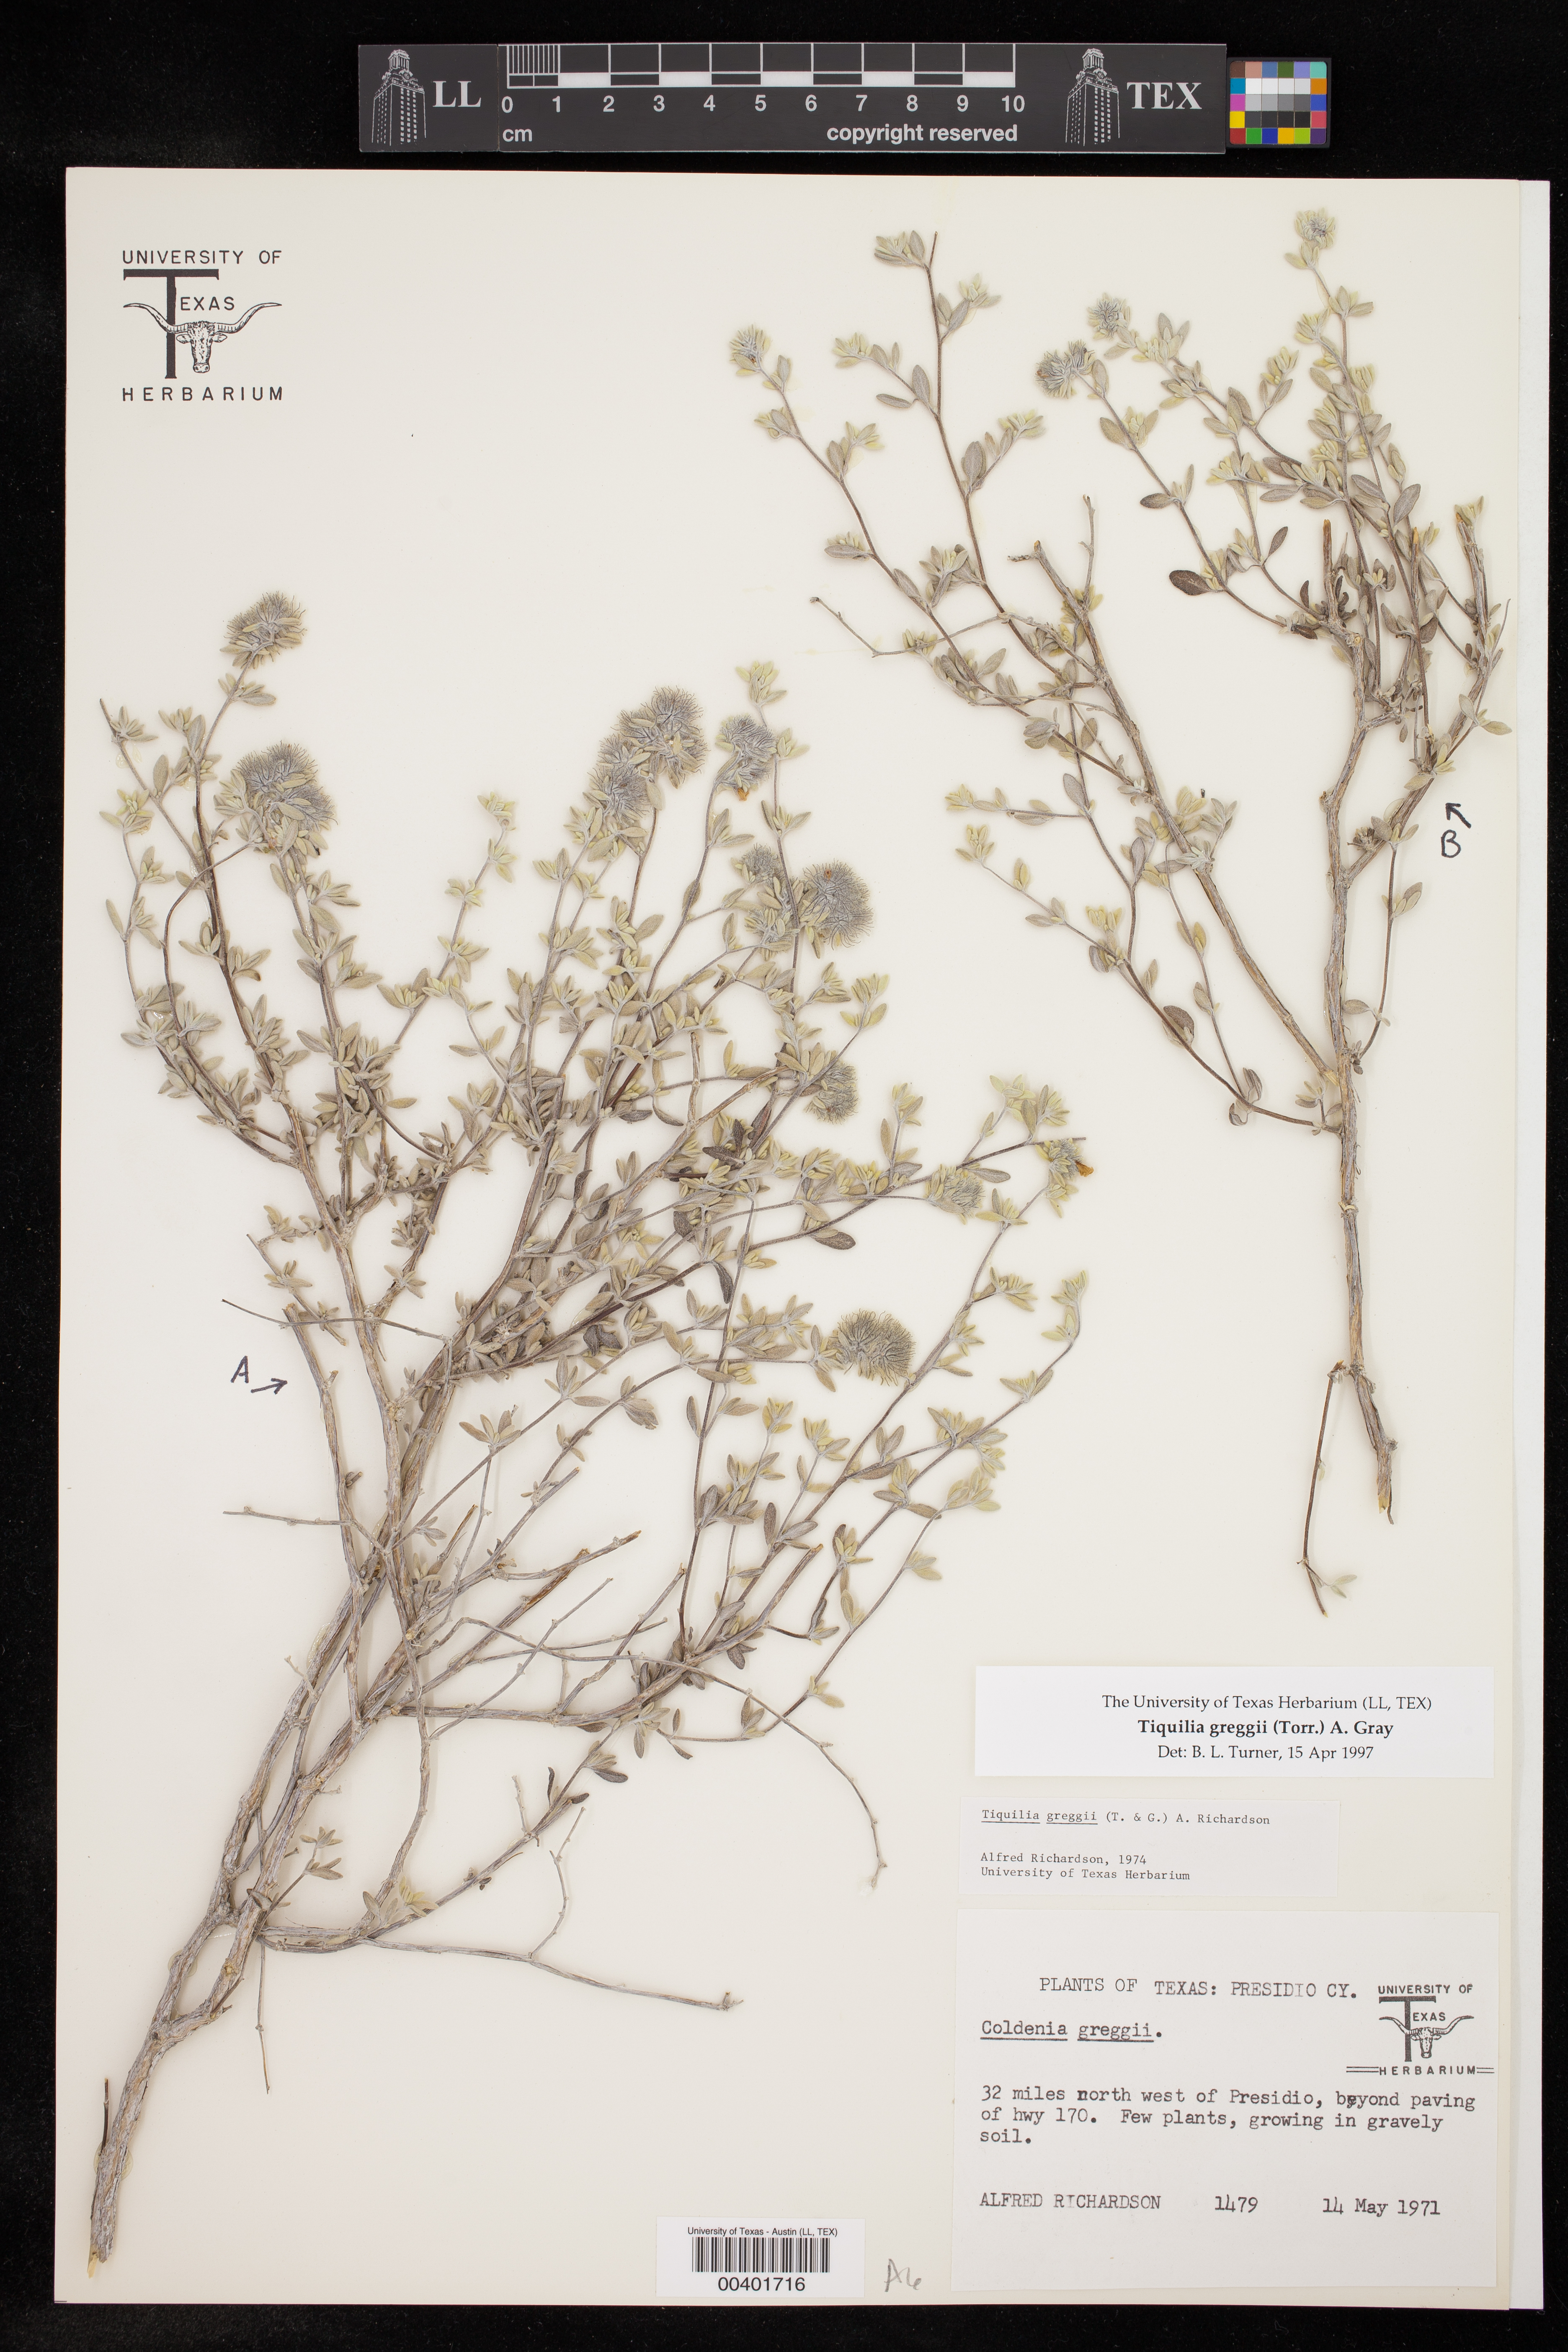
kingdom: Plantae
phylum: Tracheophyta
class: Magnoliopsida
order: Boraginales
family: Ehretiaceae
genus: Tiquilia
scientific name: Tiquilia greggii
